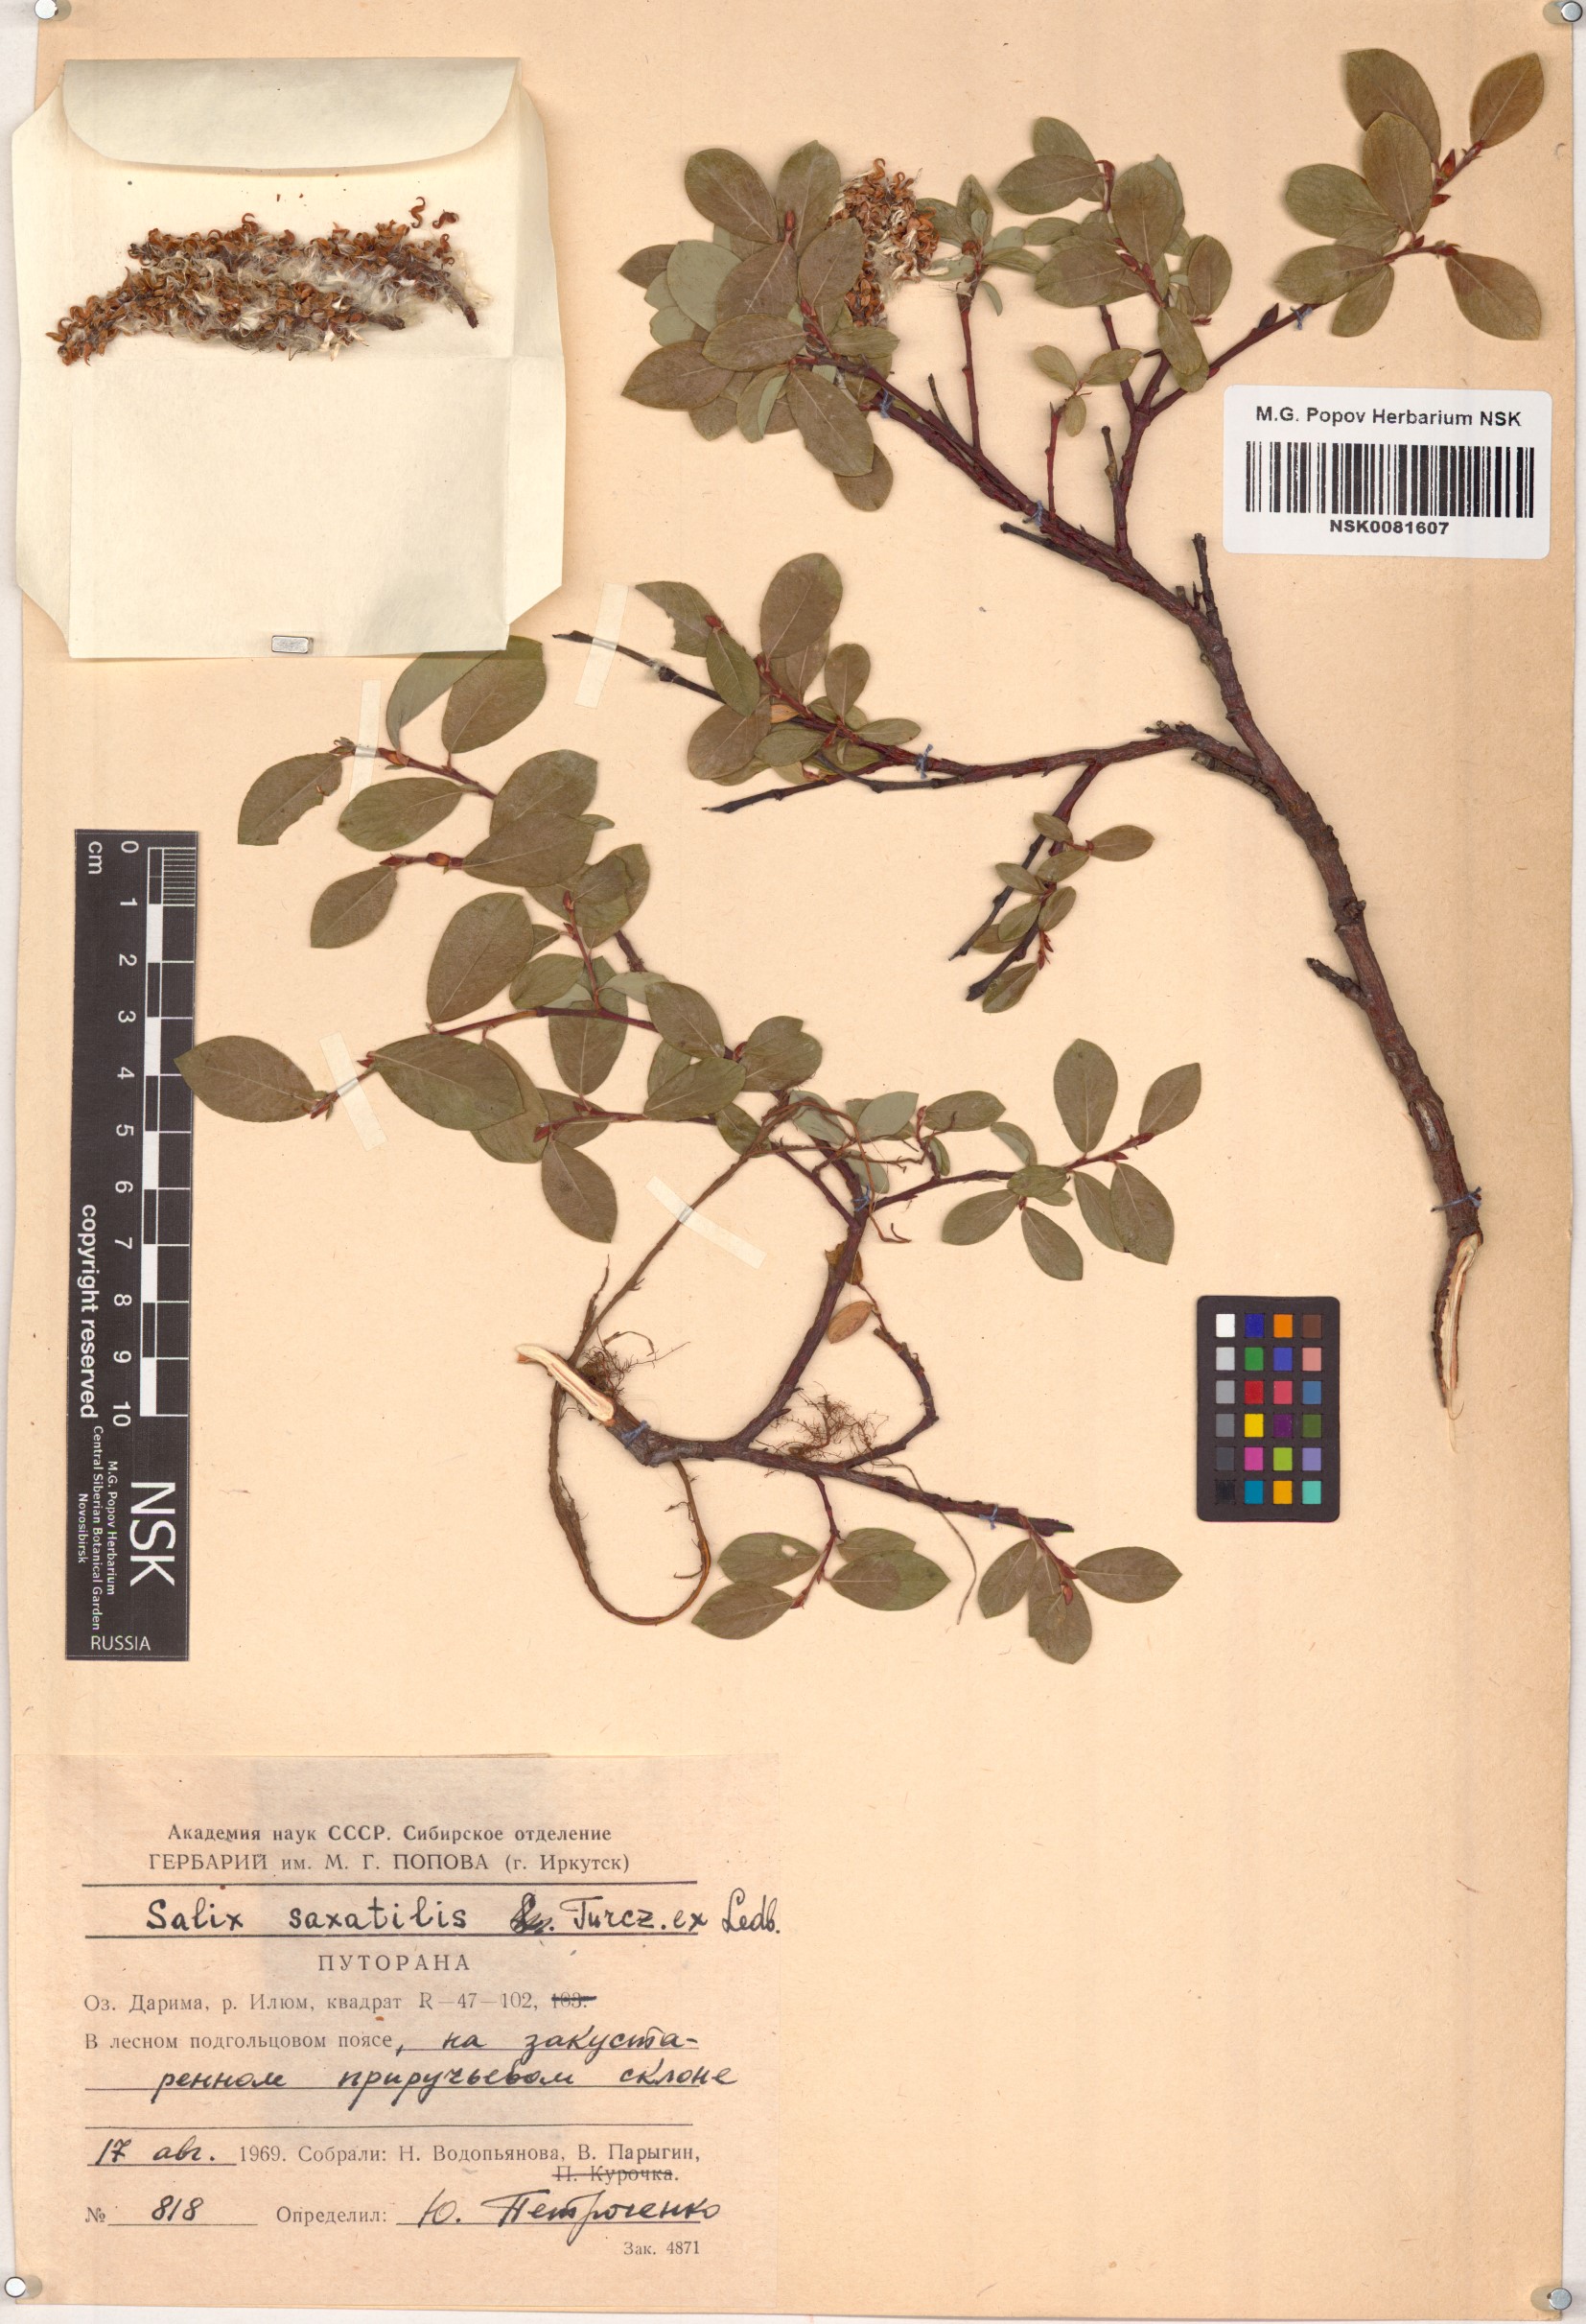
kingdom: Plantae
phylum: Tracheophyta
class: Magnoliopsida
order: Malpighiales
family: Salicaceae
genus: Salix
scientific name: Salix saxatilis
